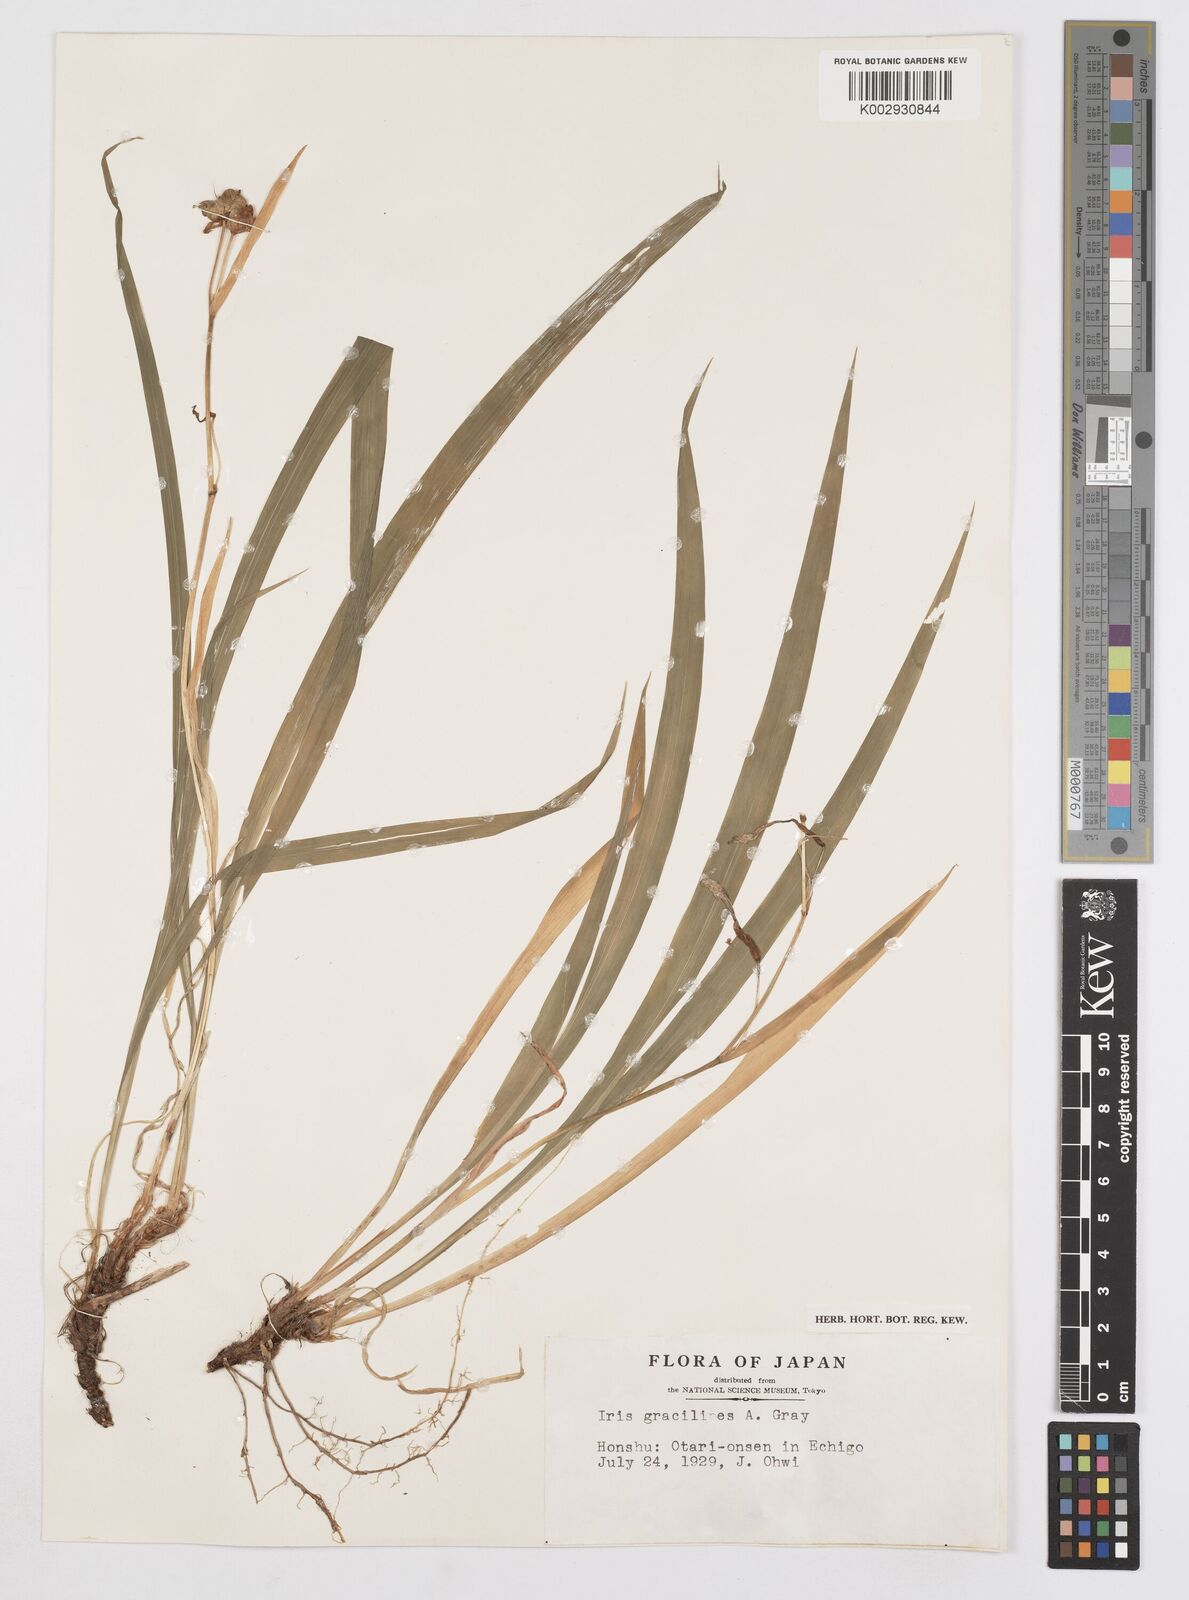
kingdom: Plantae
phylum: Tracheophyta
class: Liliopsida
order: Asparagales
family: Iridaceae
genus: Iris
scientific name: Iris gracilipes
